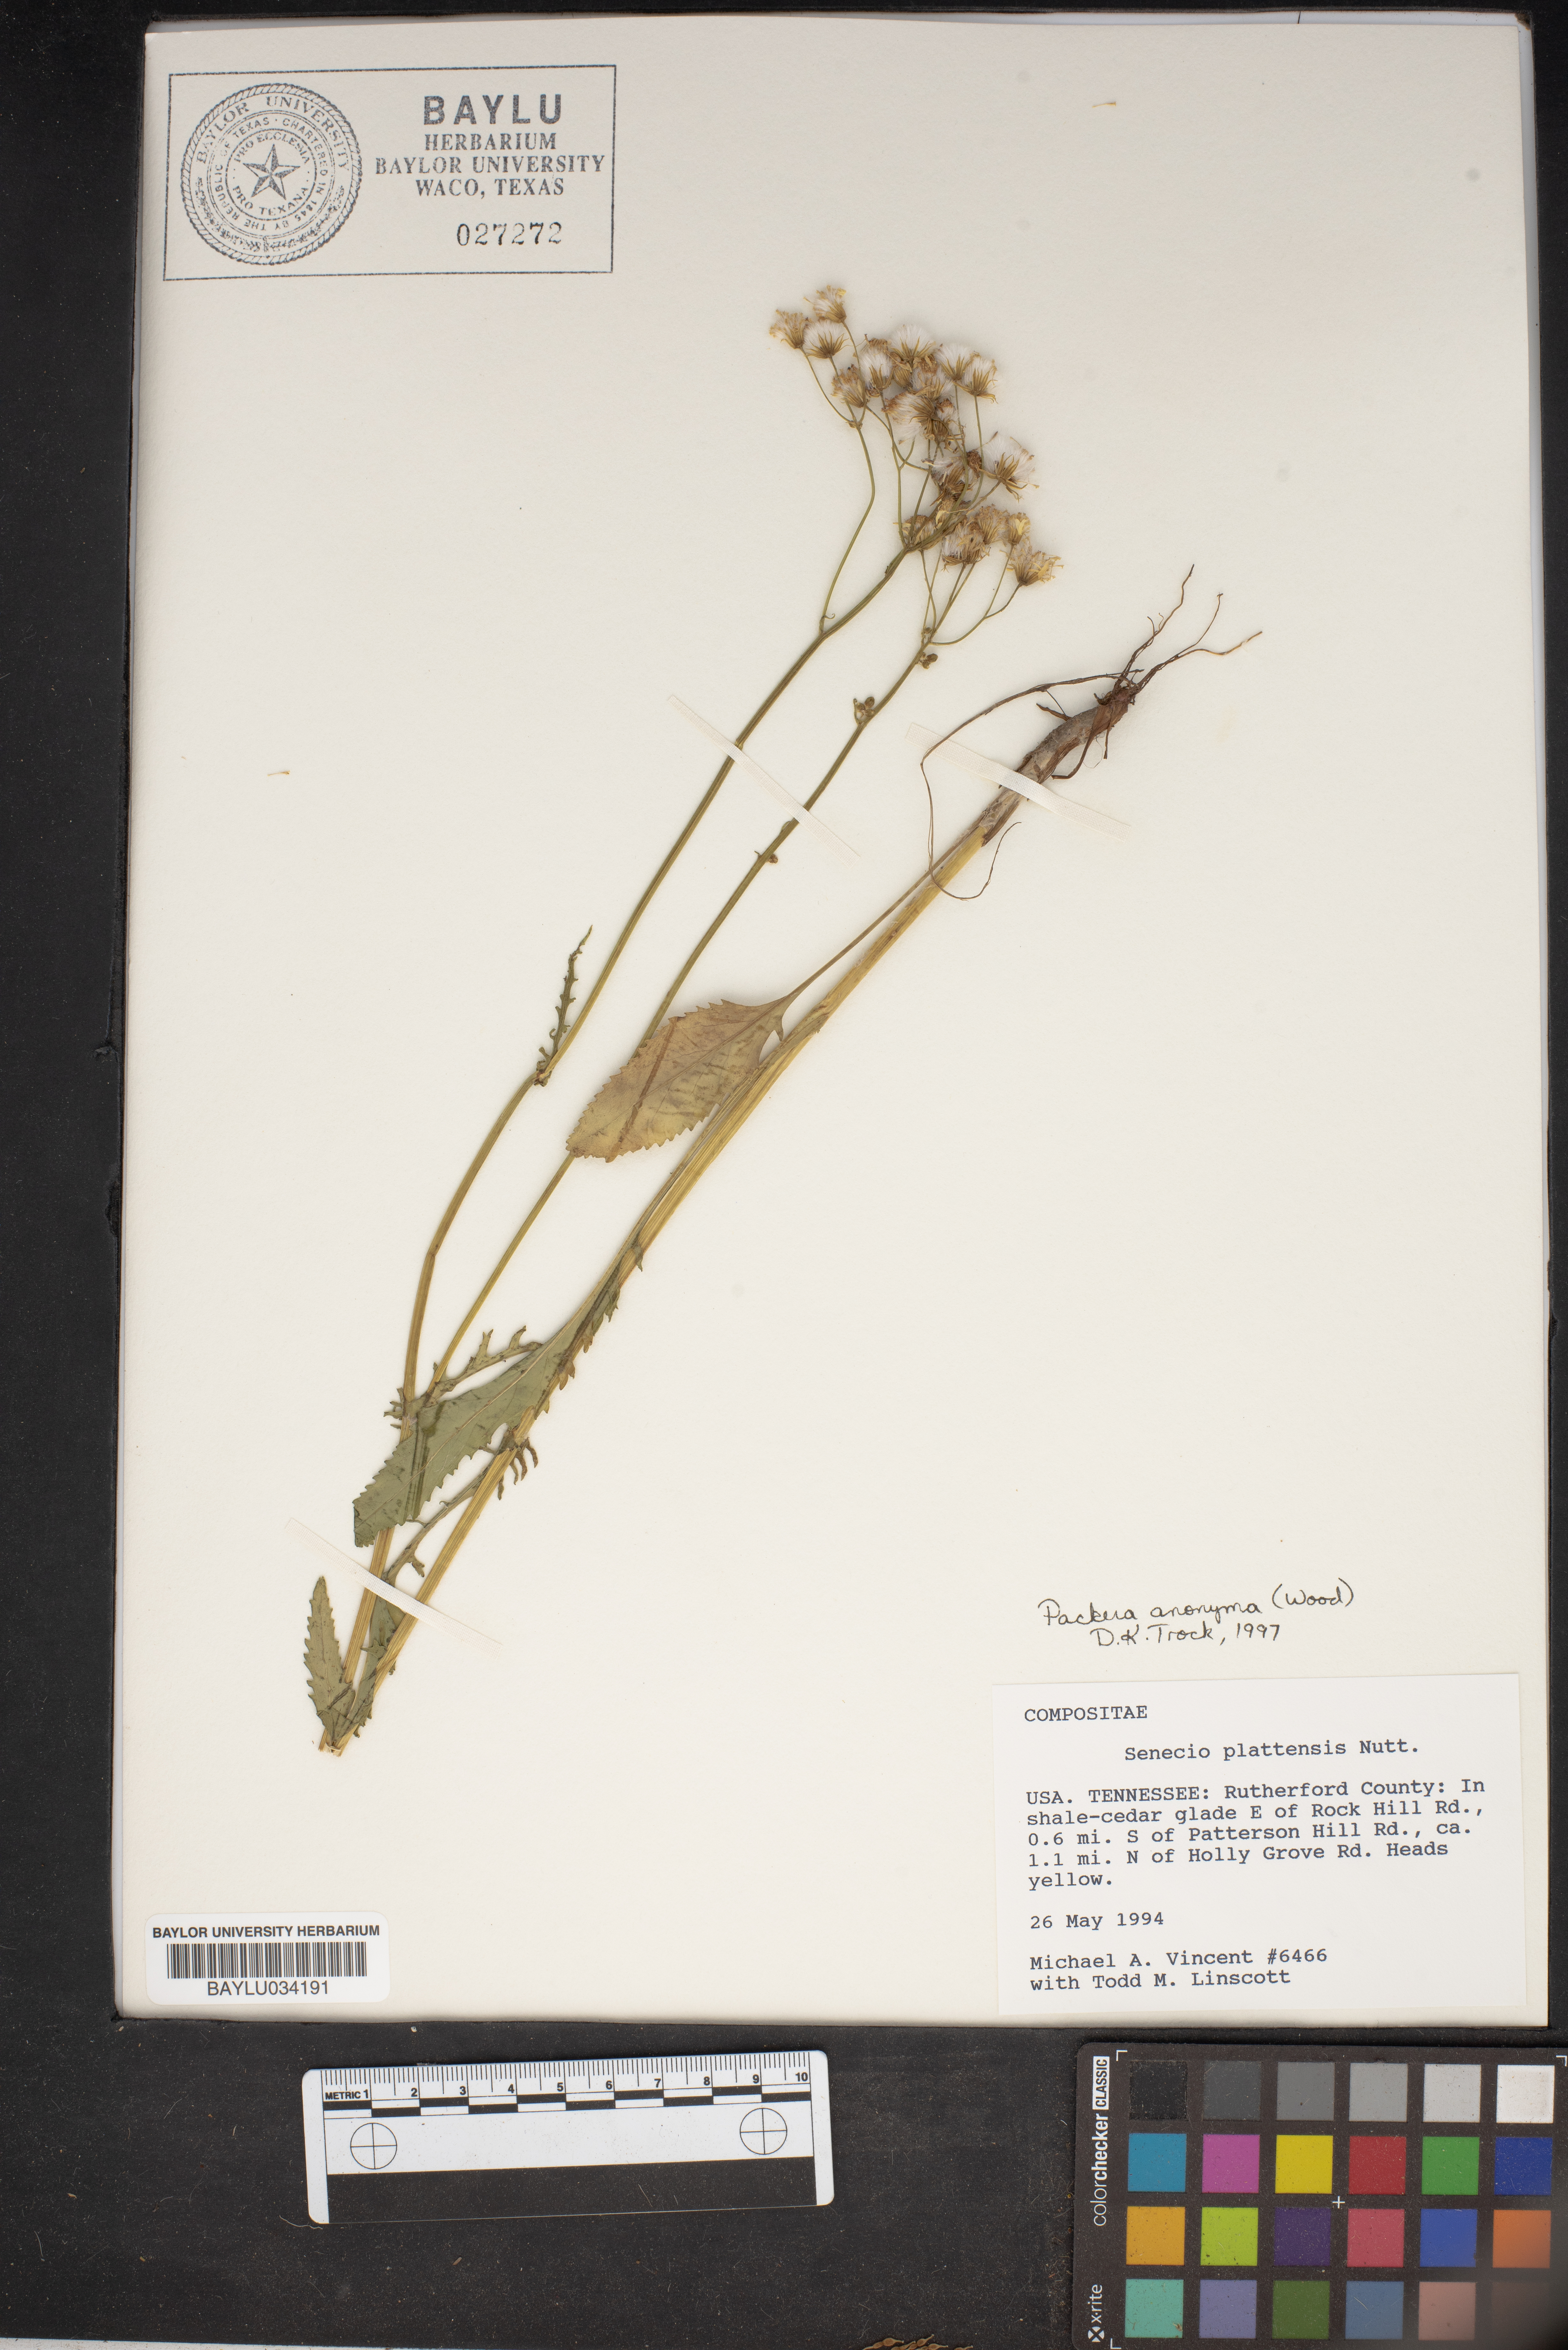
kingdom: Plantae
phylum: Tracheophyta
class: Magnoliopsida
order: Asterales
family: Asteraceae
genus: Packera
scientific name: Packera plattensis
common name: Prairie groundsel
